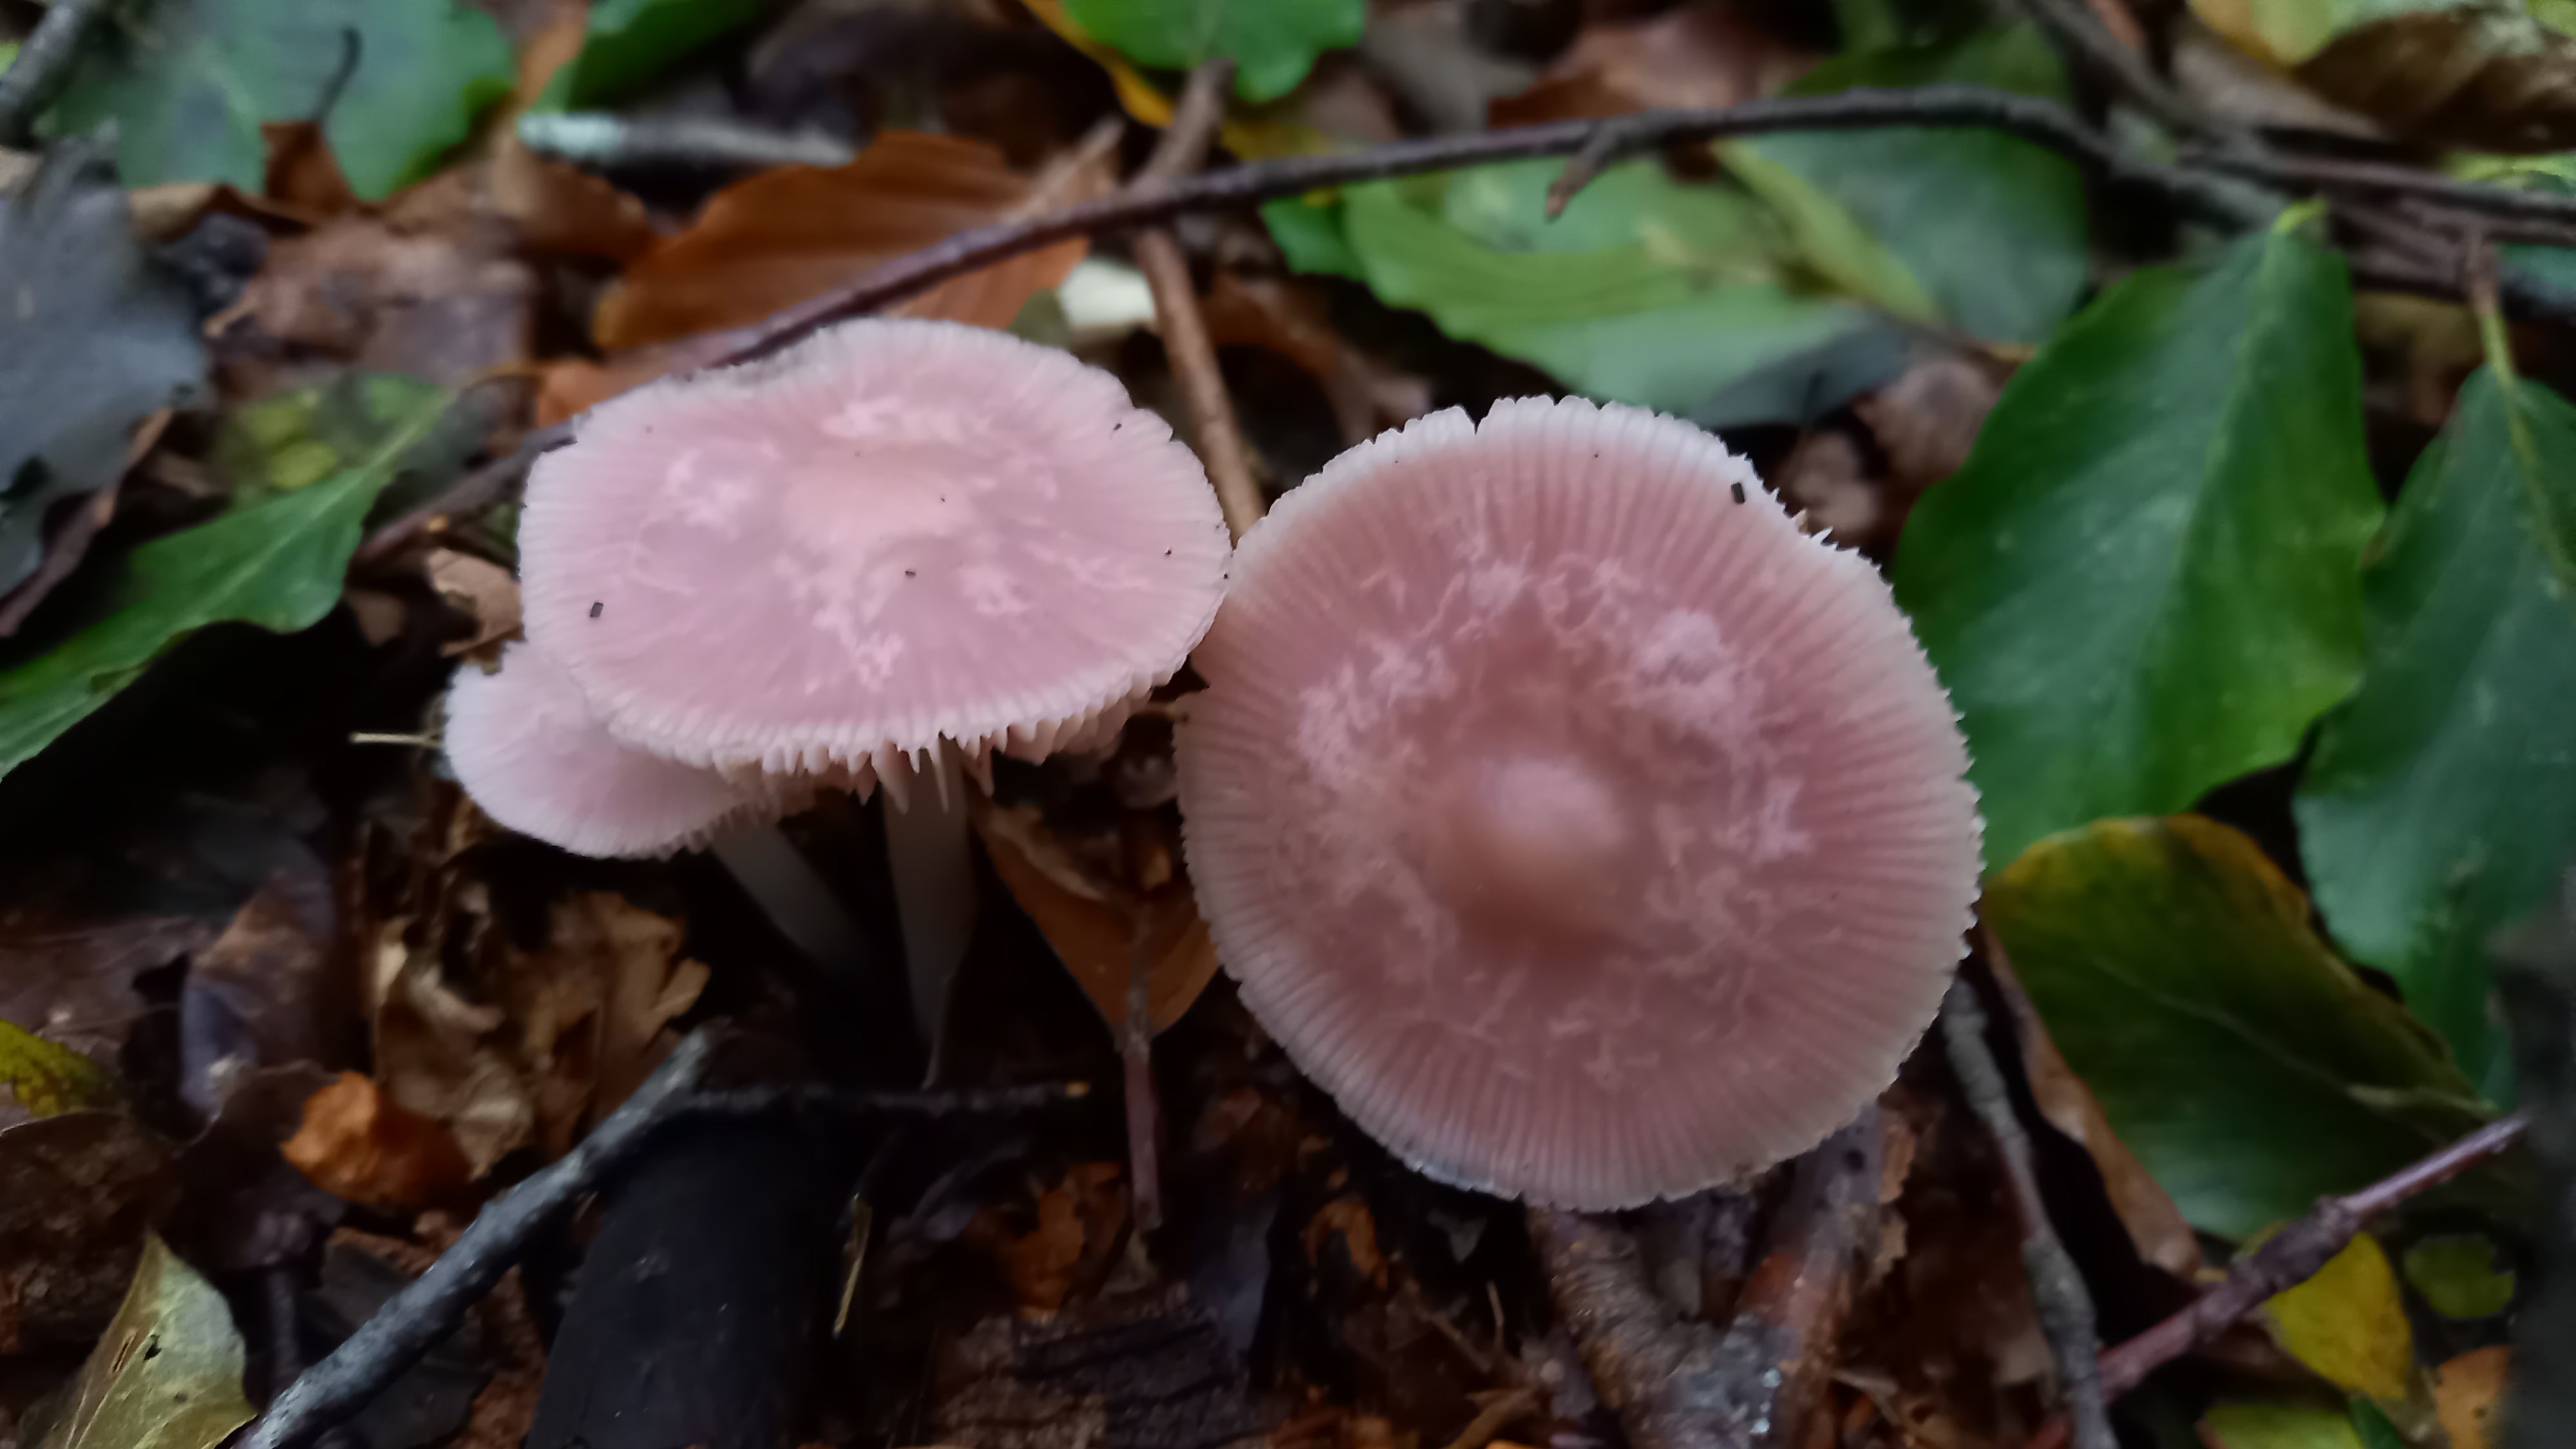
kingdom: Fungi
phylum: Basidiomycota
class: Agaricomycetes
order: Agaricales
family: Mycenaceae
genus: Mycena
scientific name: Mycena rosea
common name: rosa huesvamp
